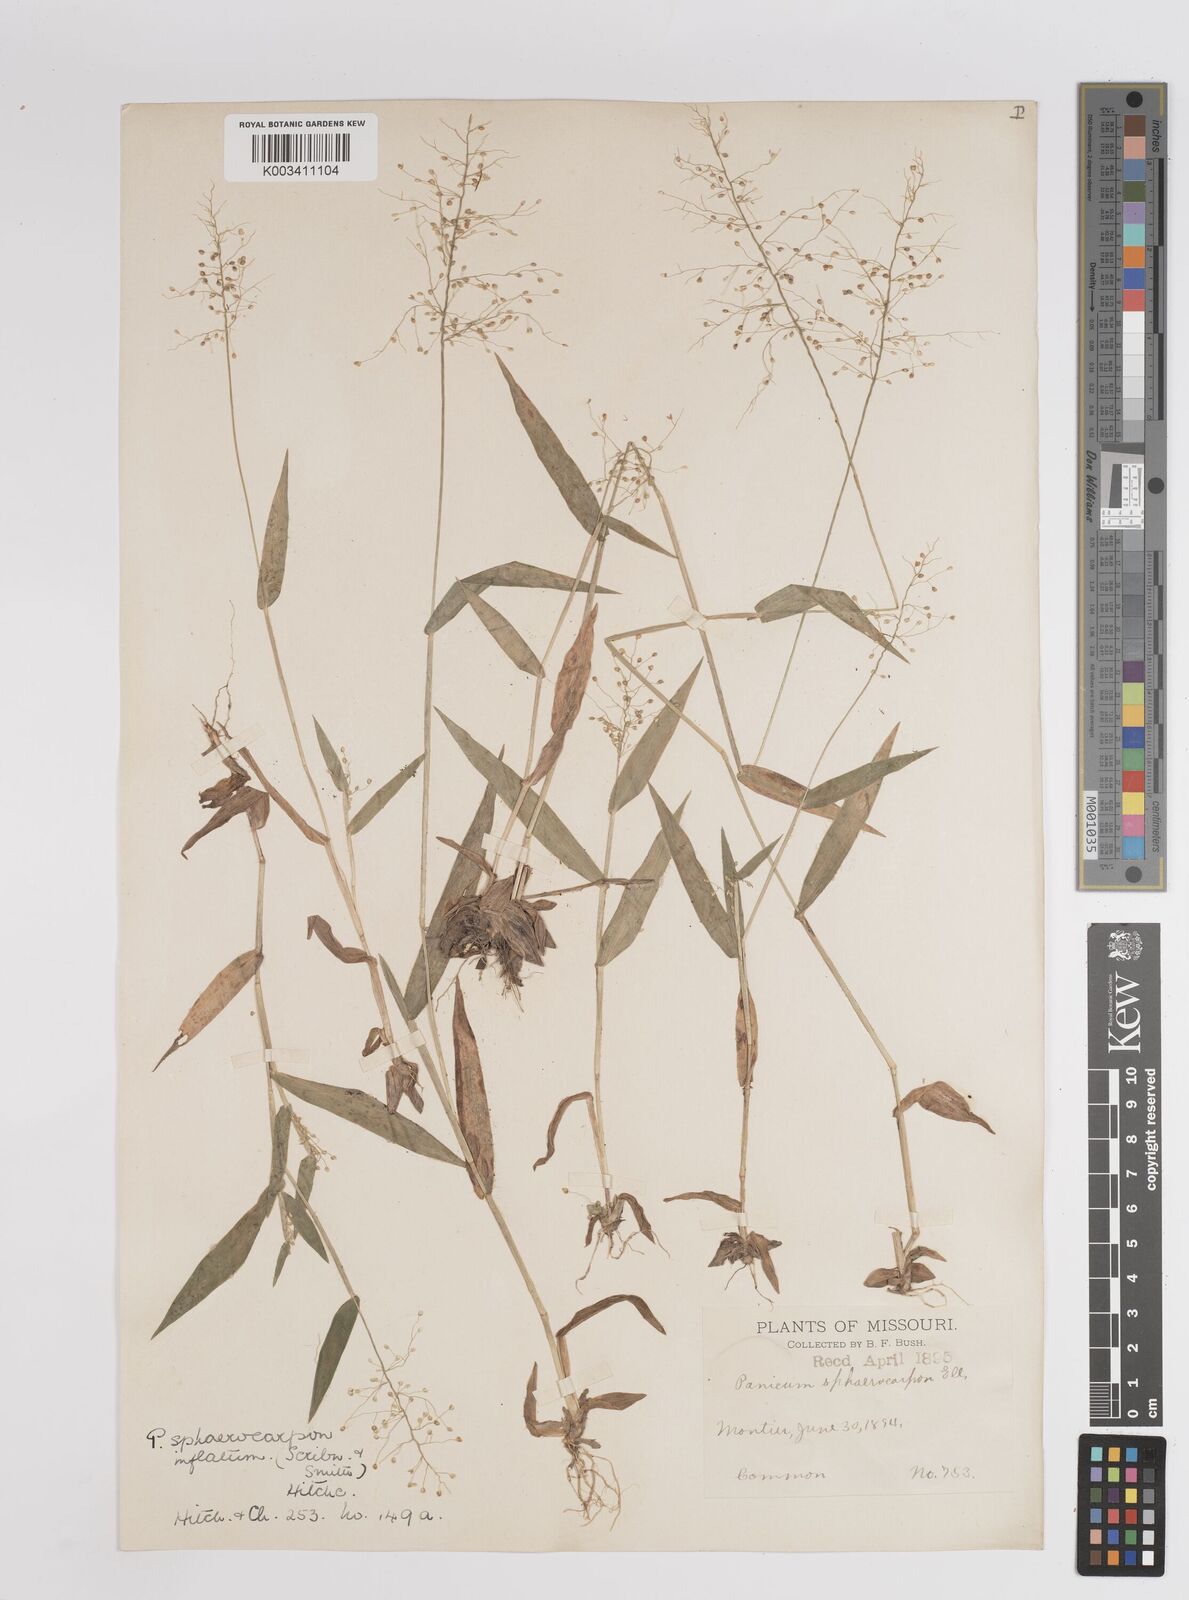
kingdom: Plantae
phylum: Tracheophyta
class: Liliopsida
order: Poales
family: Poaceae
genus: Dichanthelium
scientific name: Dichanthelium sphaerocarpon
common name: Round-fruited panicgrass
